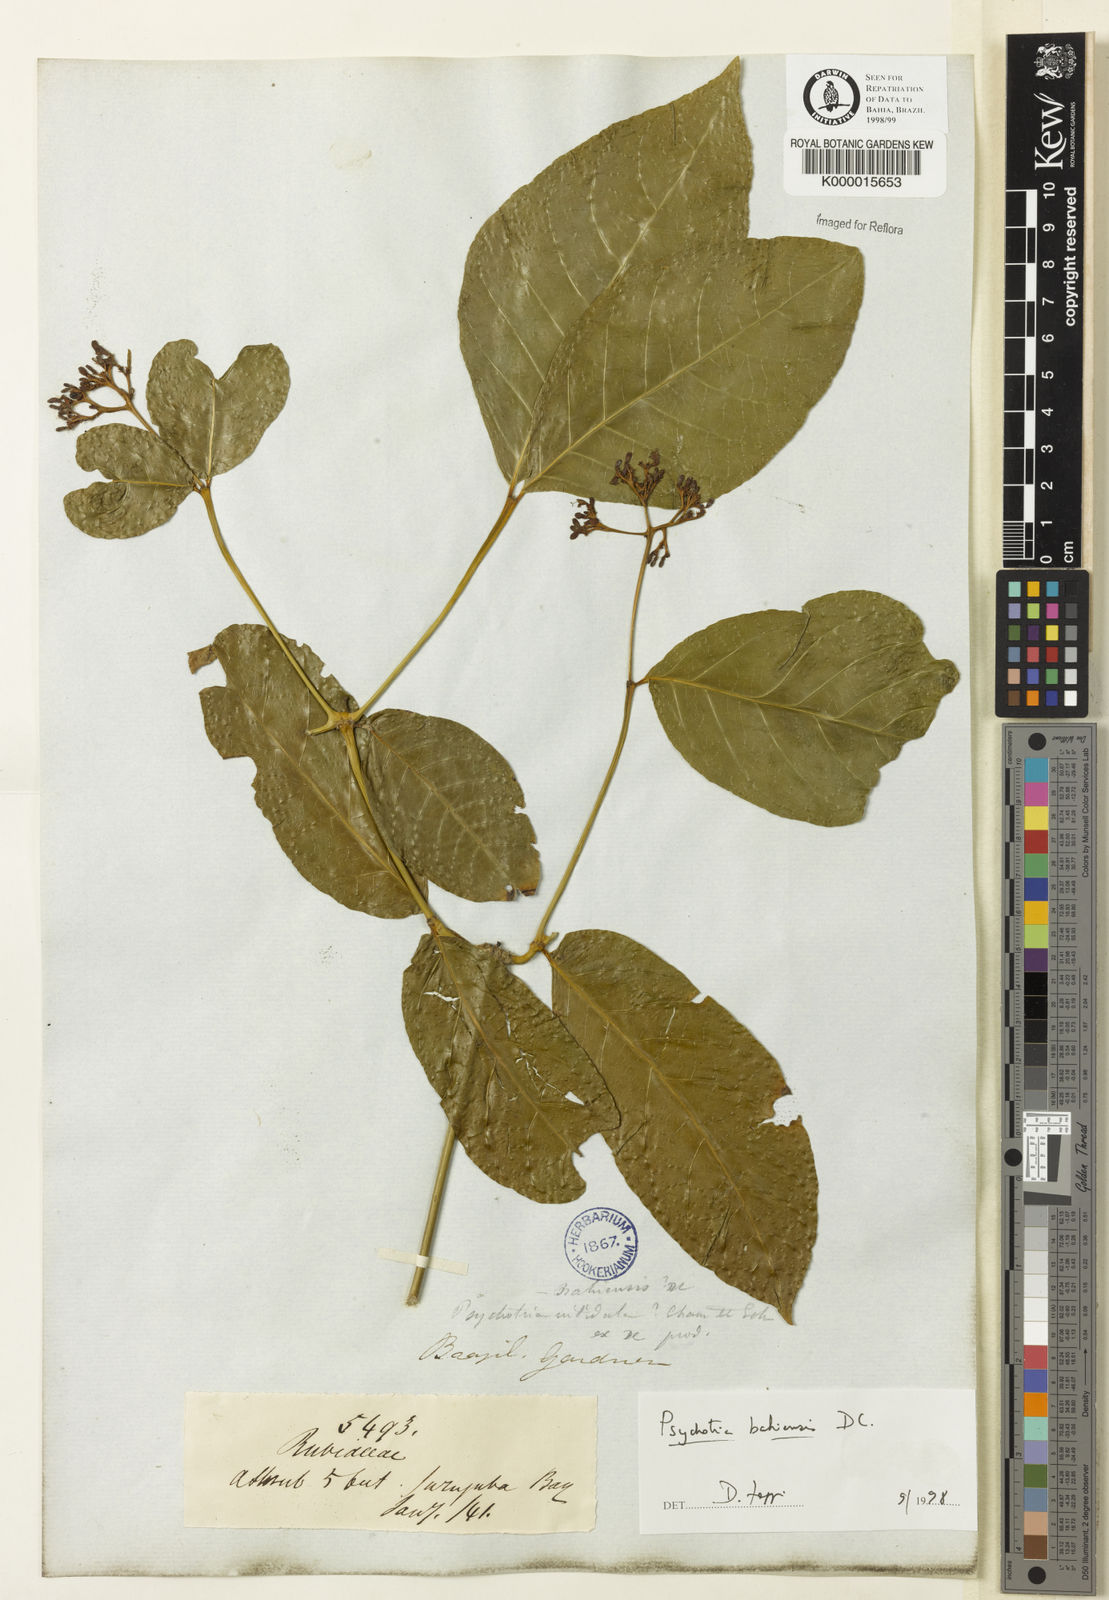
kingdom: Plantae
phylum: Tracheophyta
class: Magnoliopsida
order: Gentianales
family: Rubiaceae
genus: Psychotria
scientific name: Psychotria bahiensis
